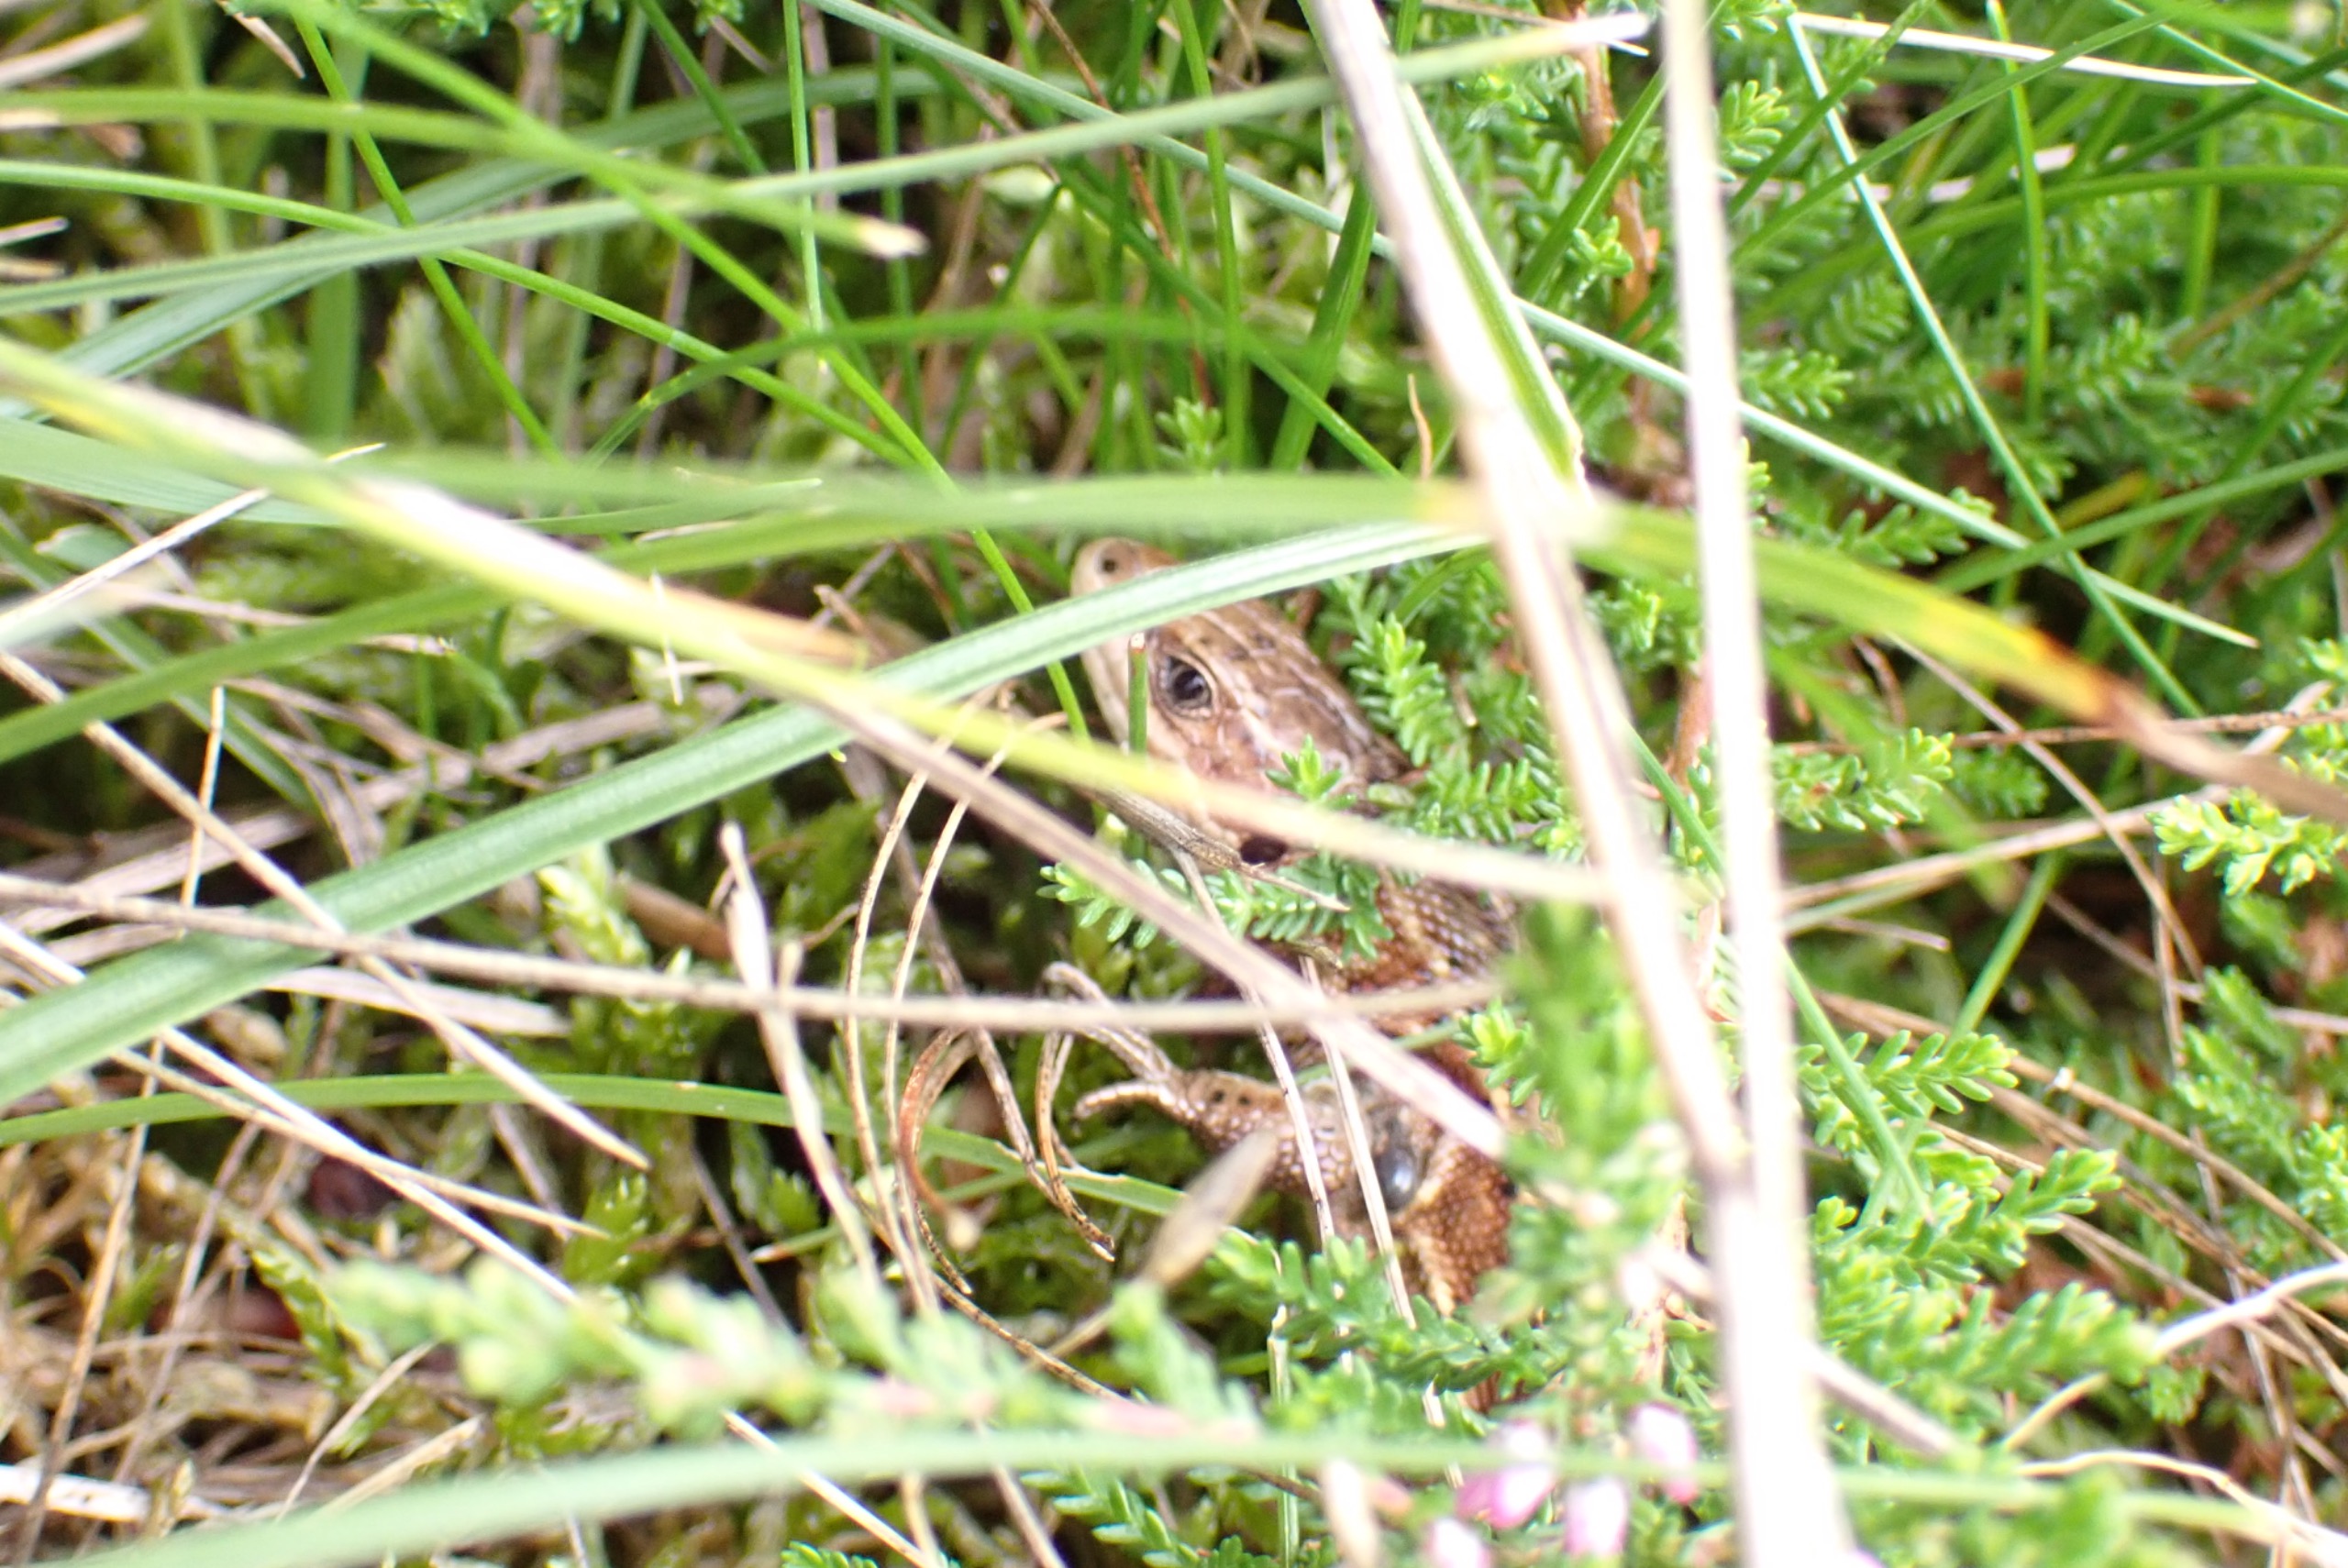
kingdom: Animalia
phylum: Chordata
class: Squamata
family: Lacertidae
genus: Zootoca
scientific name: Zootoca vivipara
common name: Skovfirben
